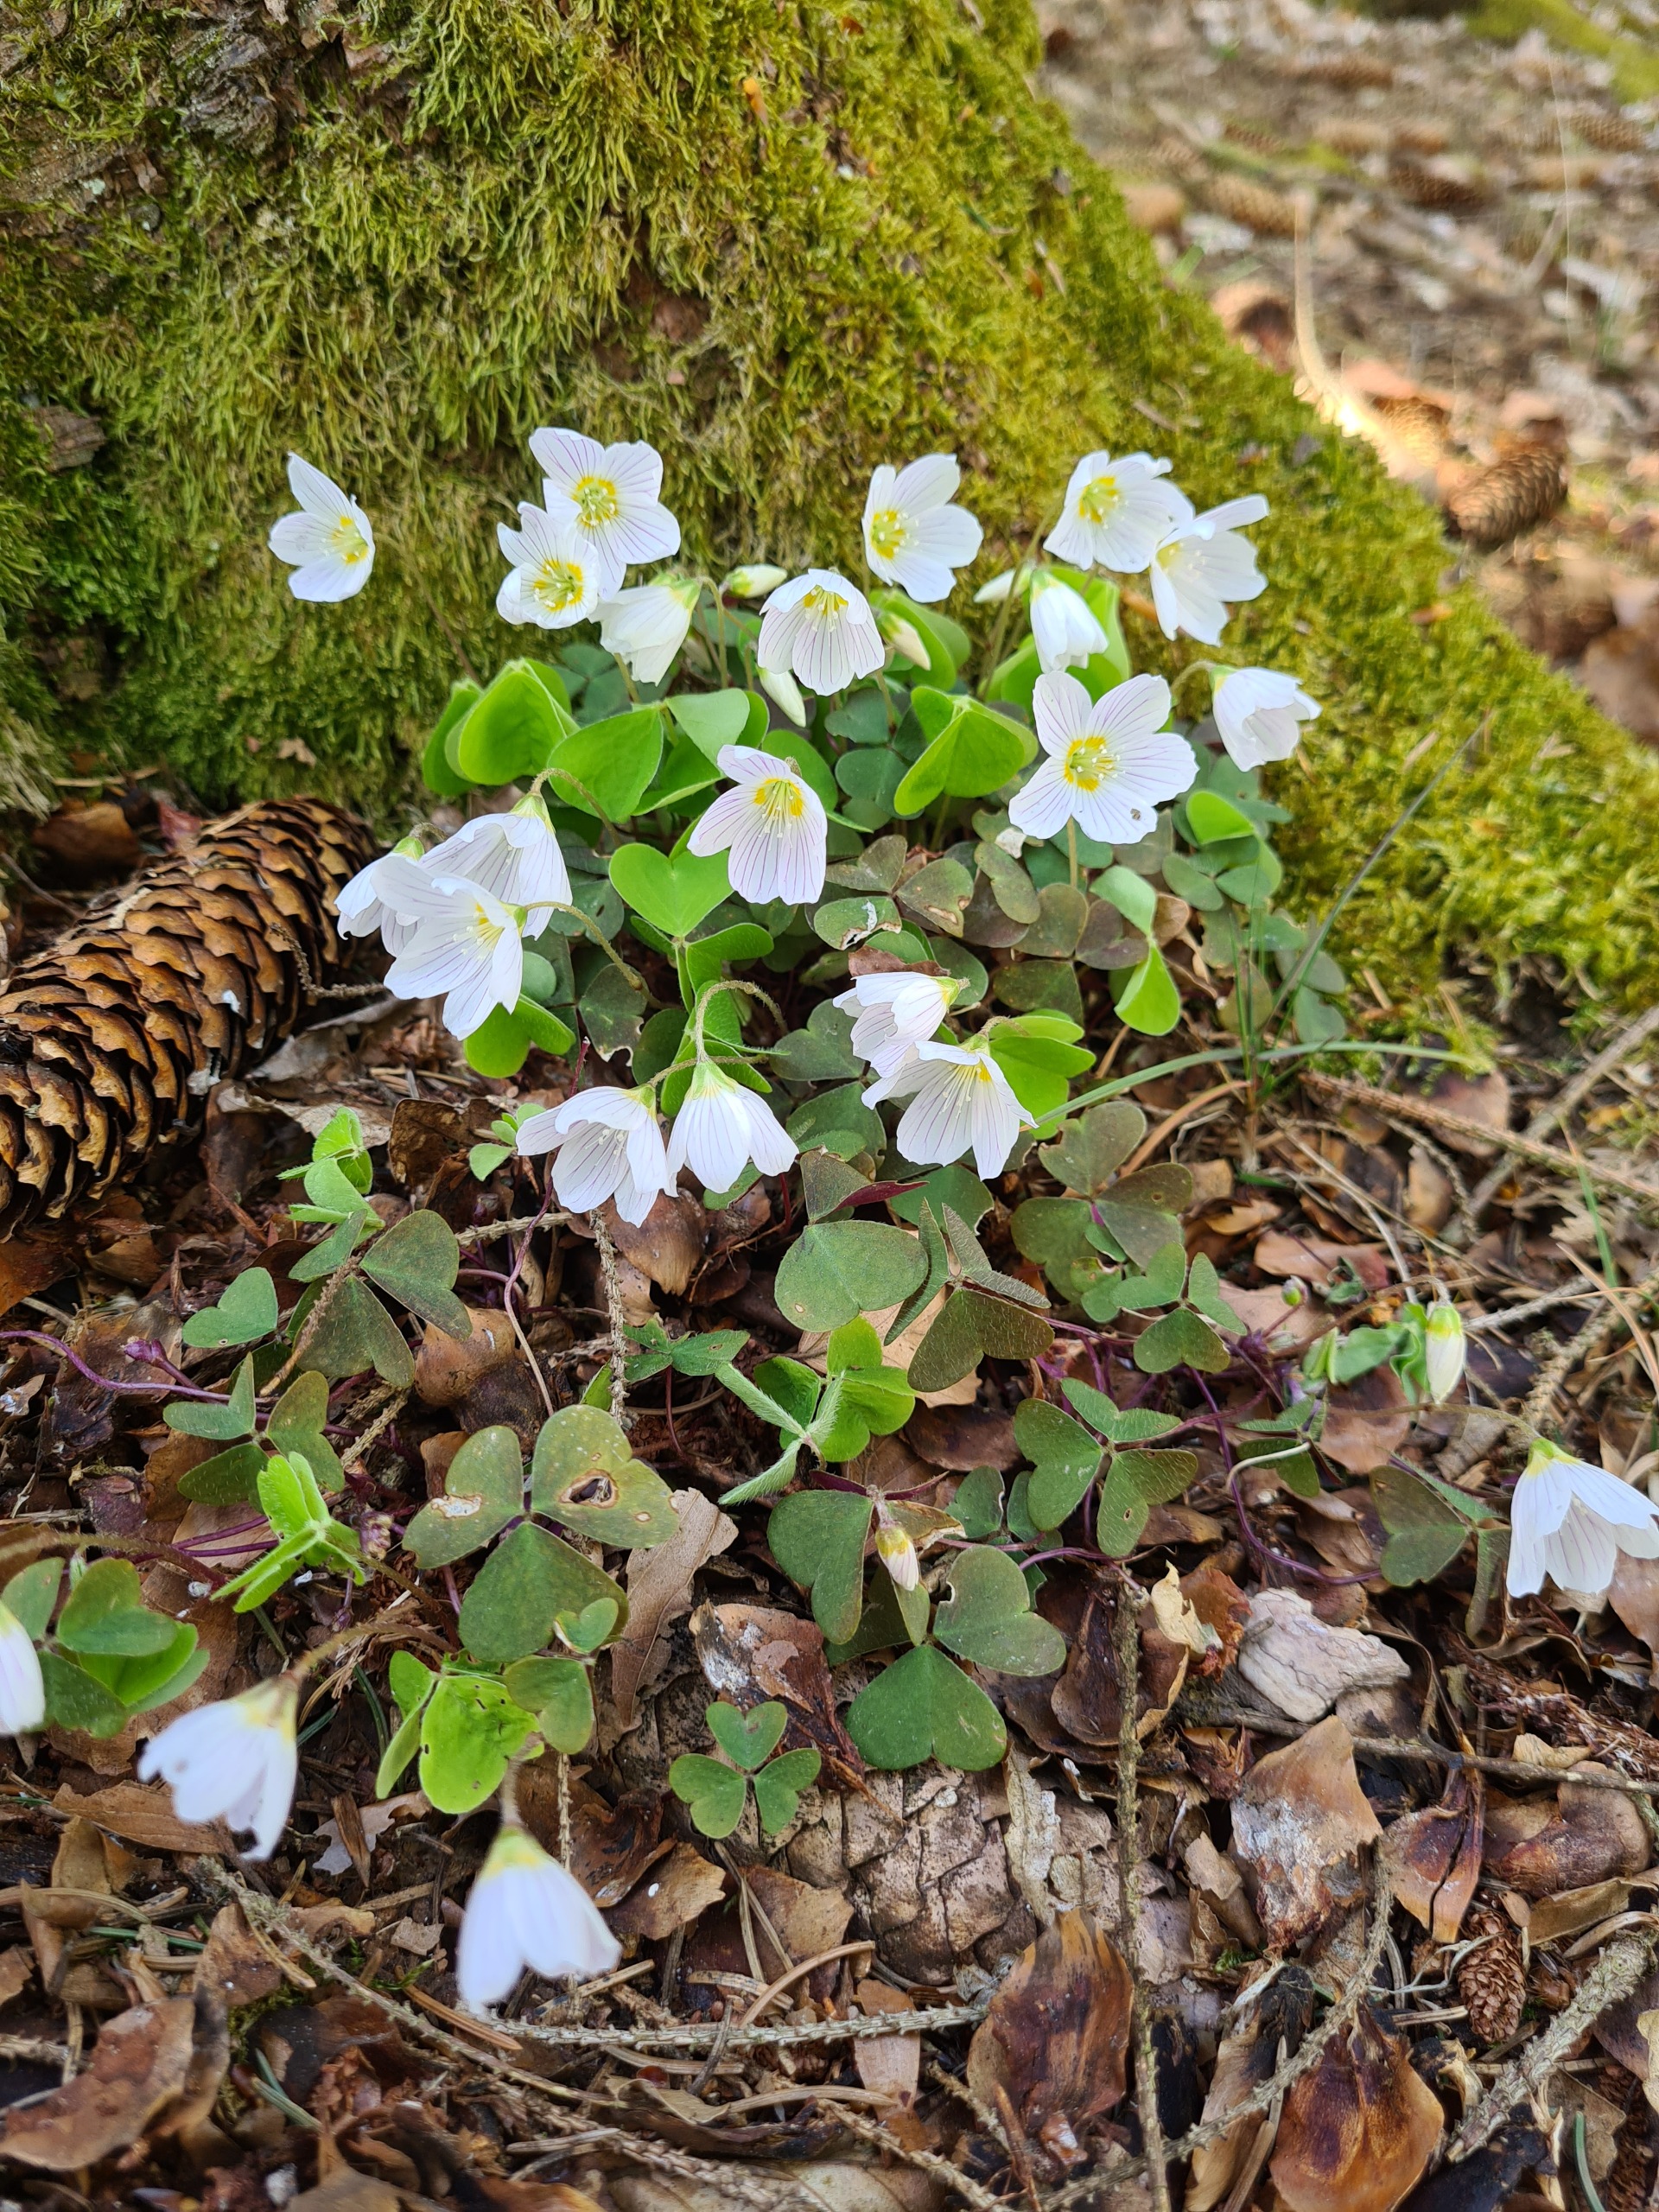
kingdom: Plantae
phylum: Tracheophyta
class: Magnoliopsida
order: Oxalidales
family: Oxalidaceae
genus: Oxalis
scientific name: Oxalis acetosella
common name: Skovsyre
